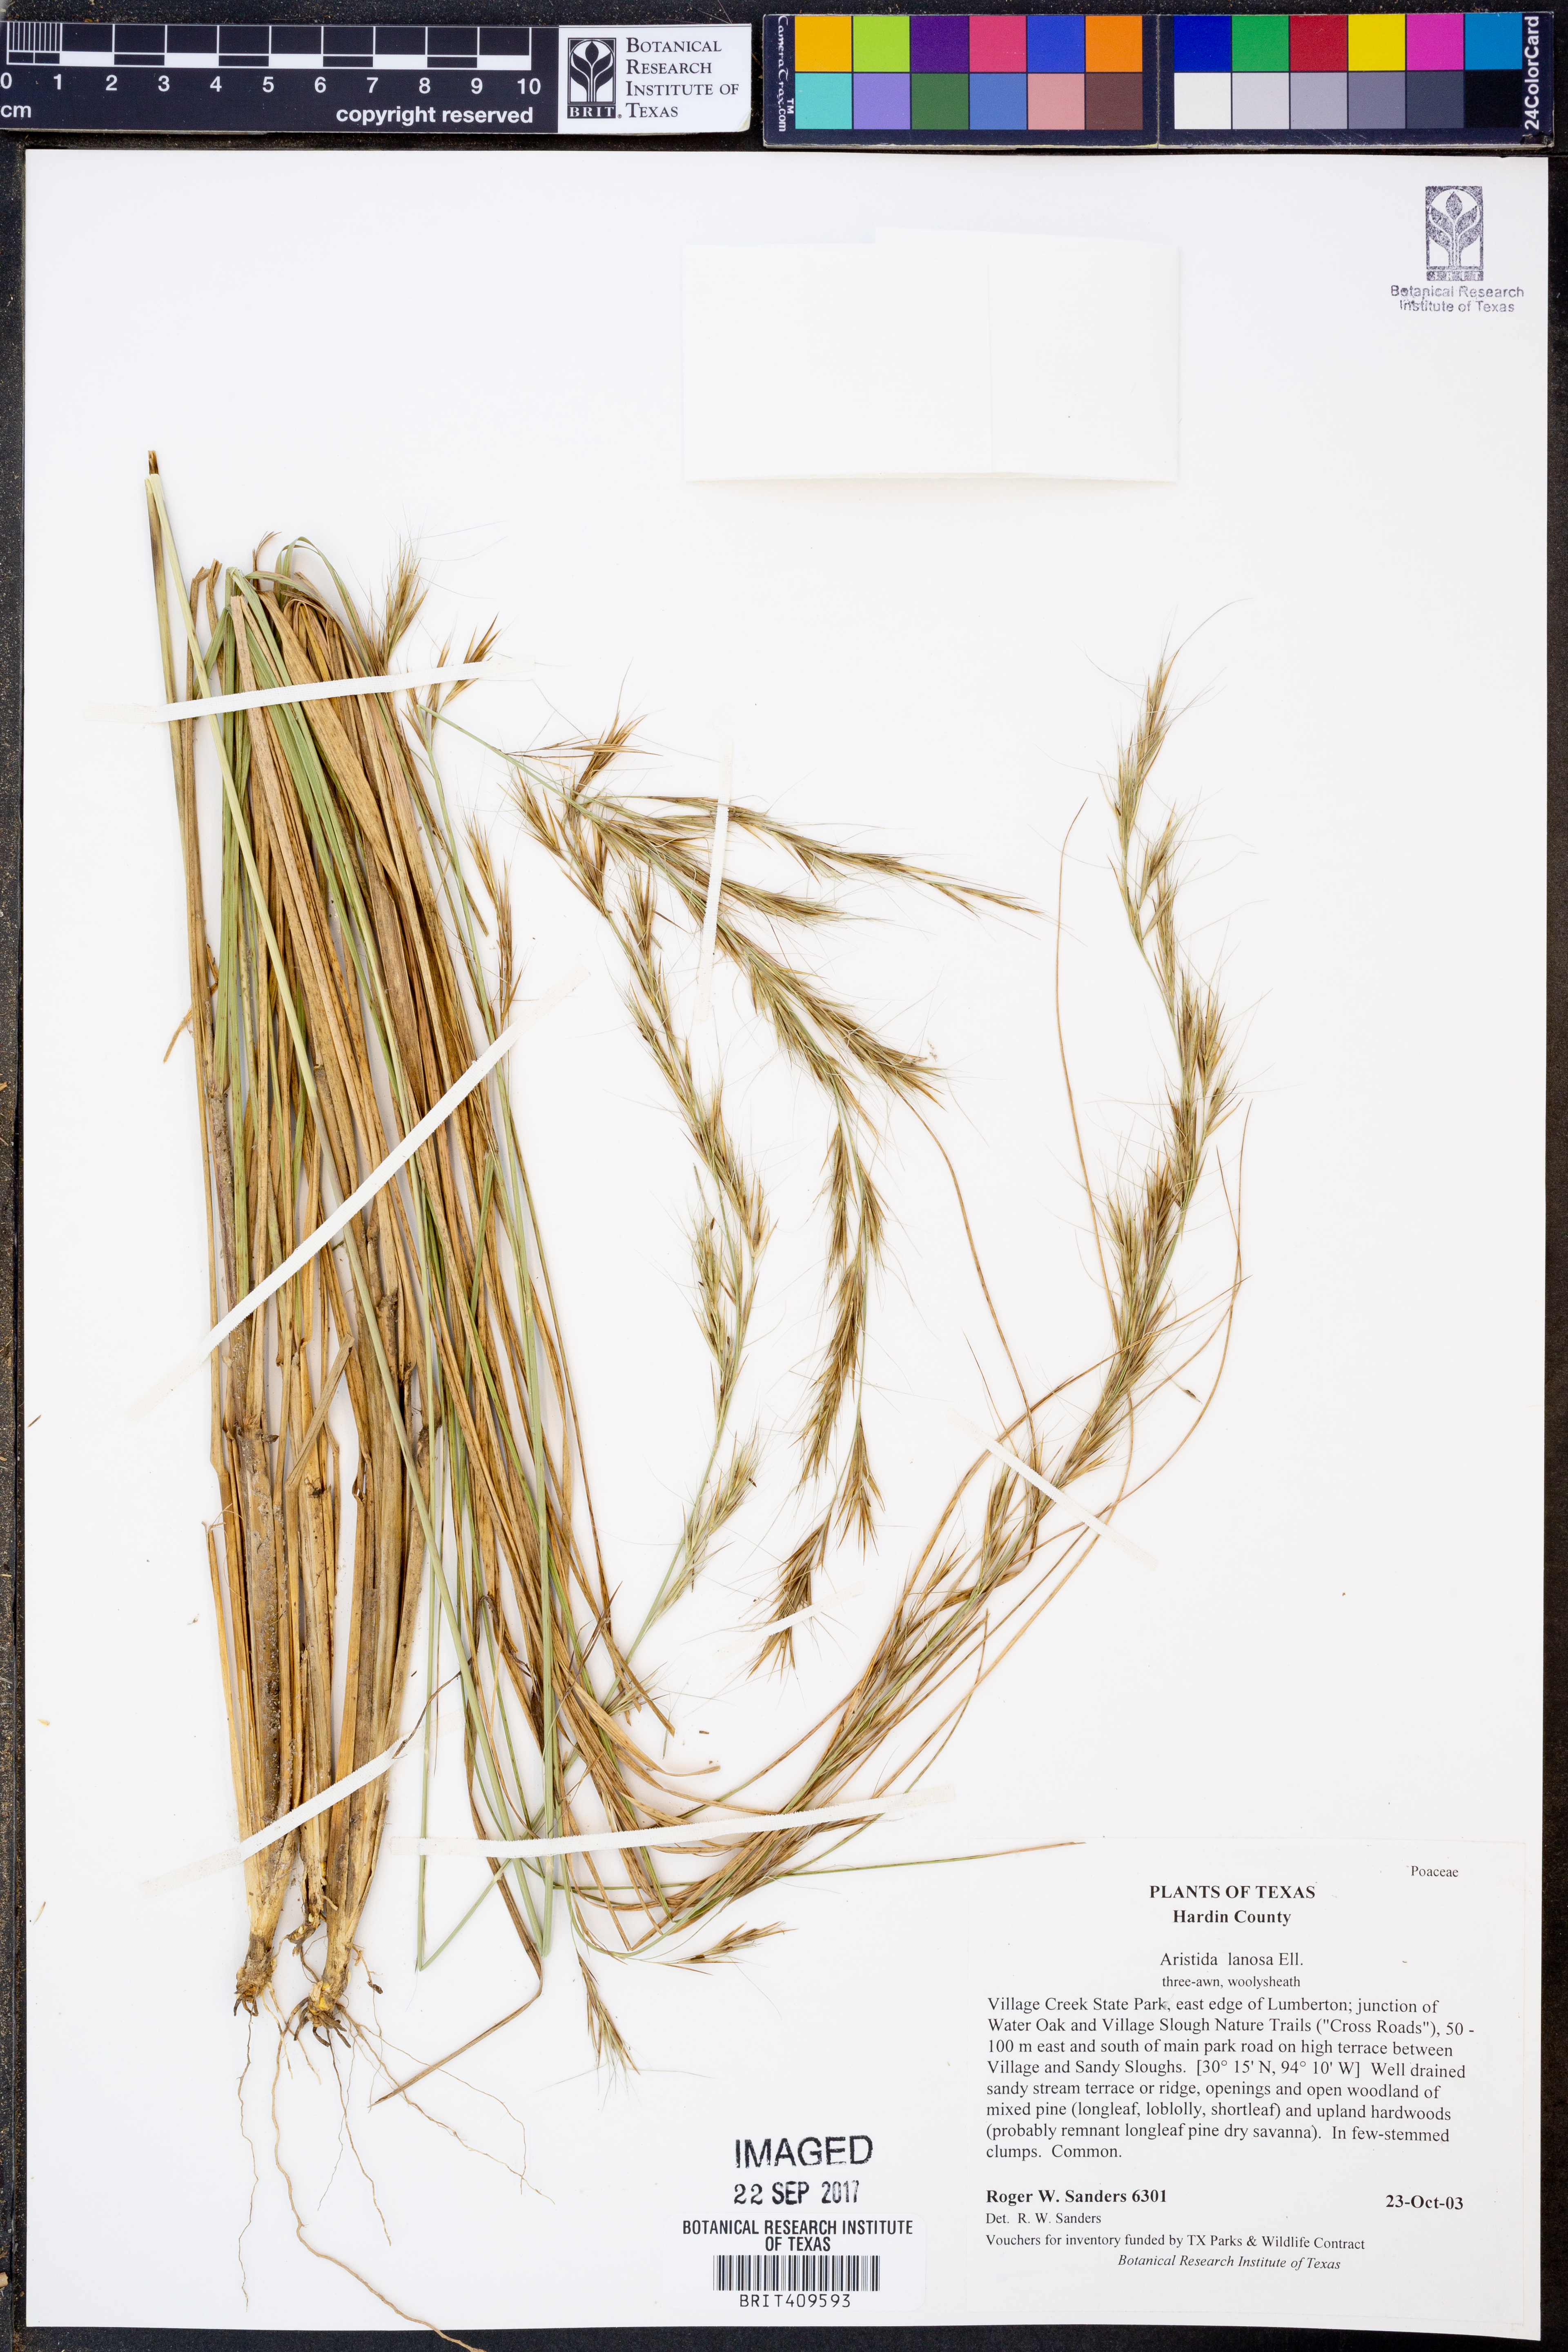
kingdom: Plantae
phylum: Tracheophyta
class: Liliopsida
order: Poales
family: Poaceae
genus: Aristida
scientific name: Aristida lanosa
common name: Woolly three-awn
